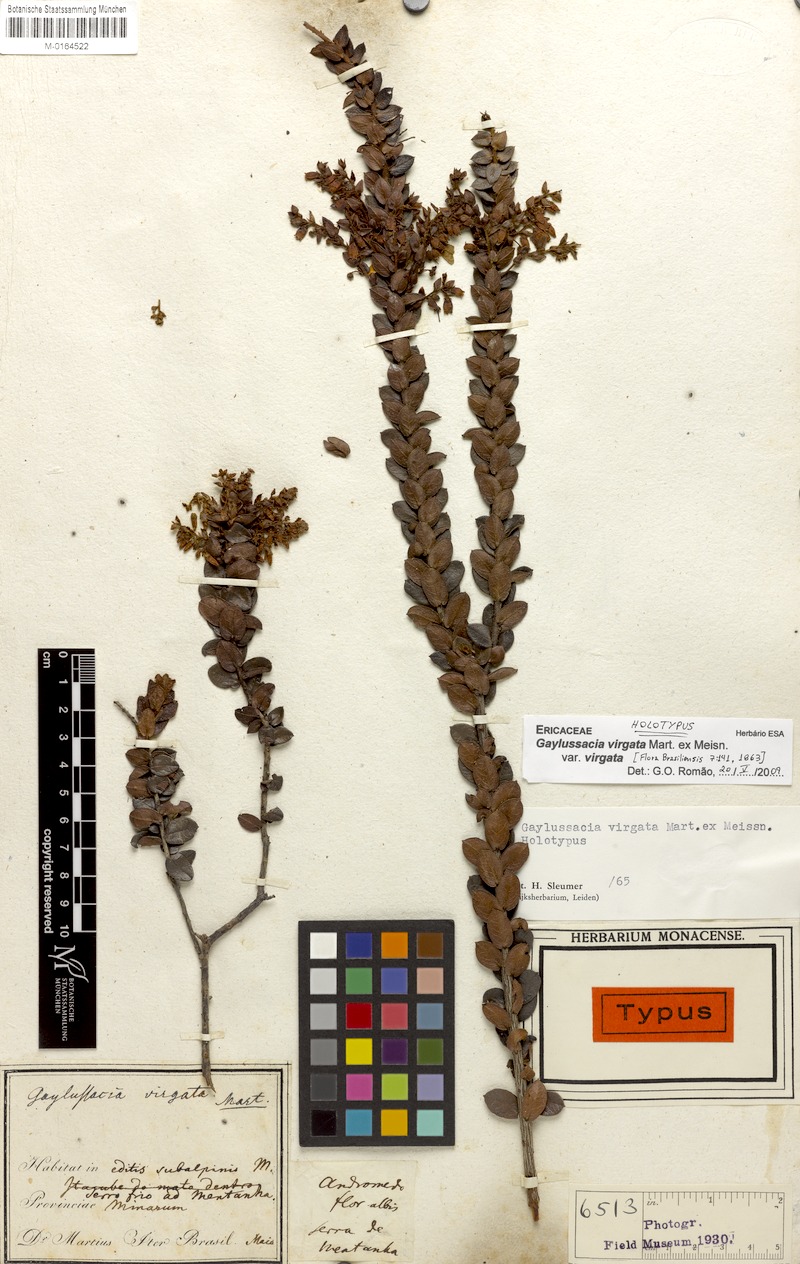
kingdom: Plantae
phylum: Tracheophyta
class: Magnoliopsida
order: Ericales
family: Ericaceae
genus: Gaylussacia
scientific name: Gaylussacia virgata
